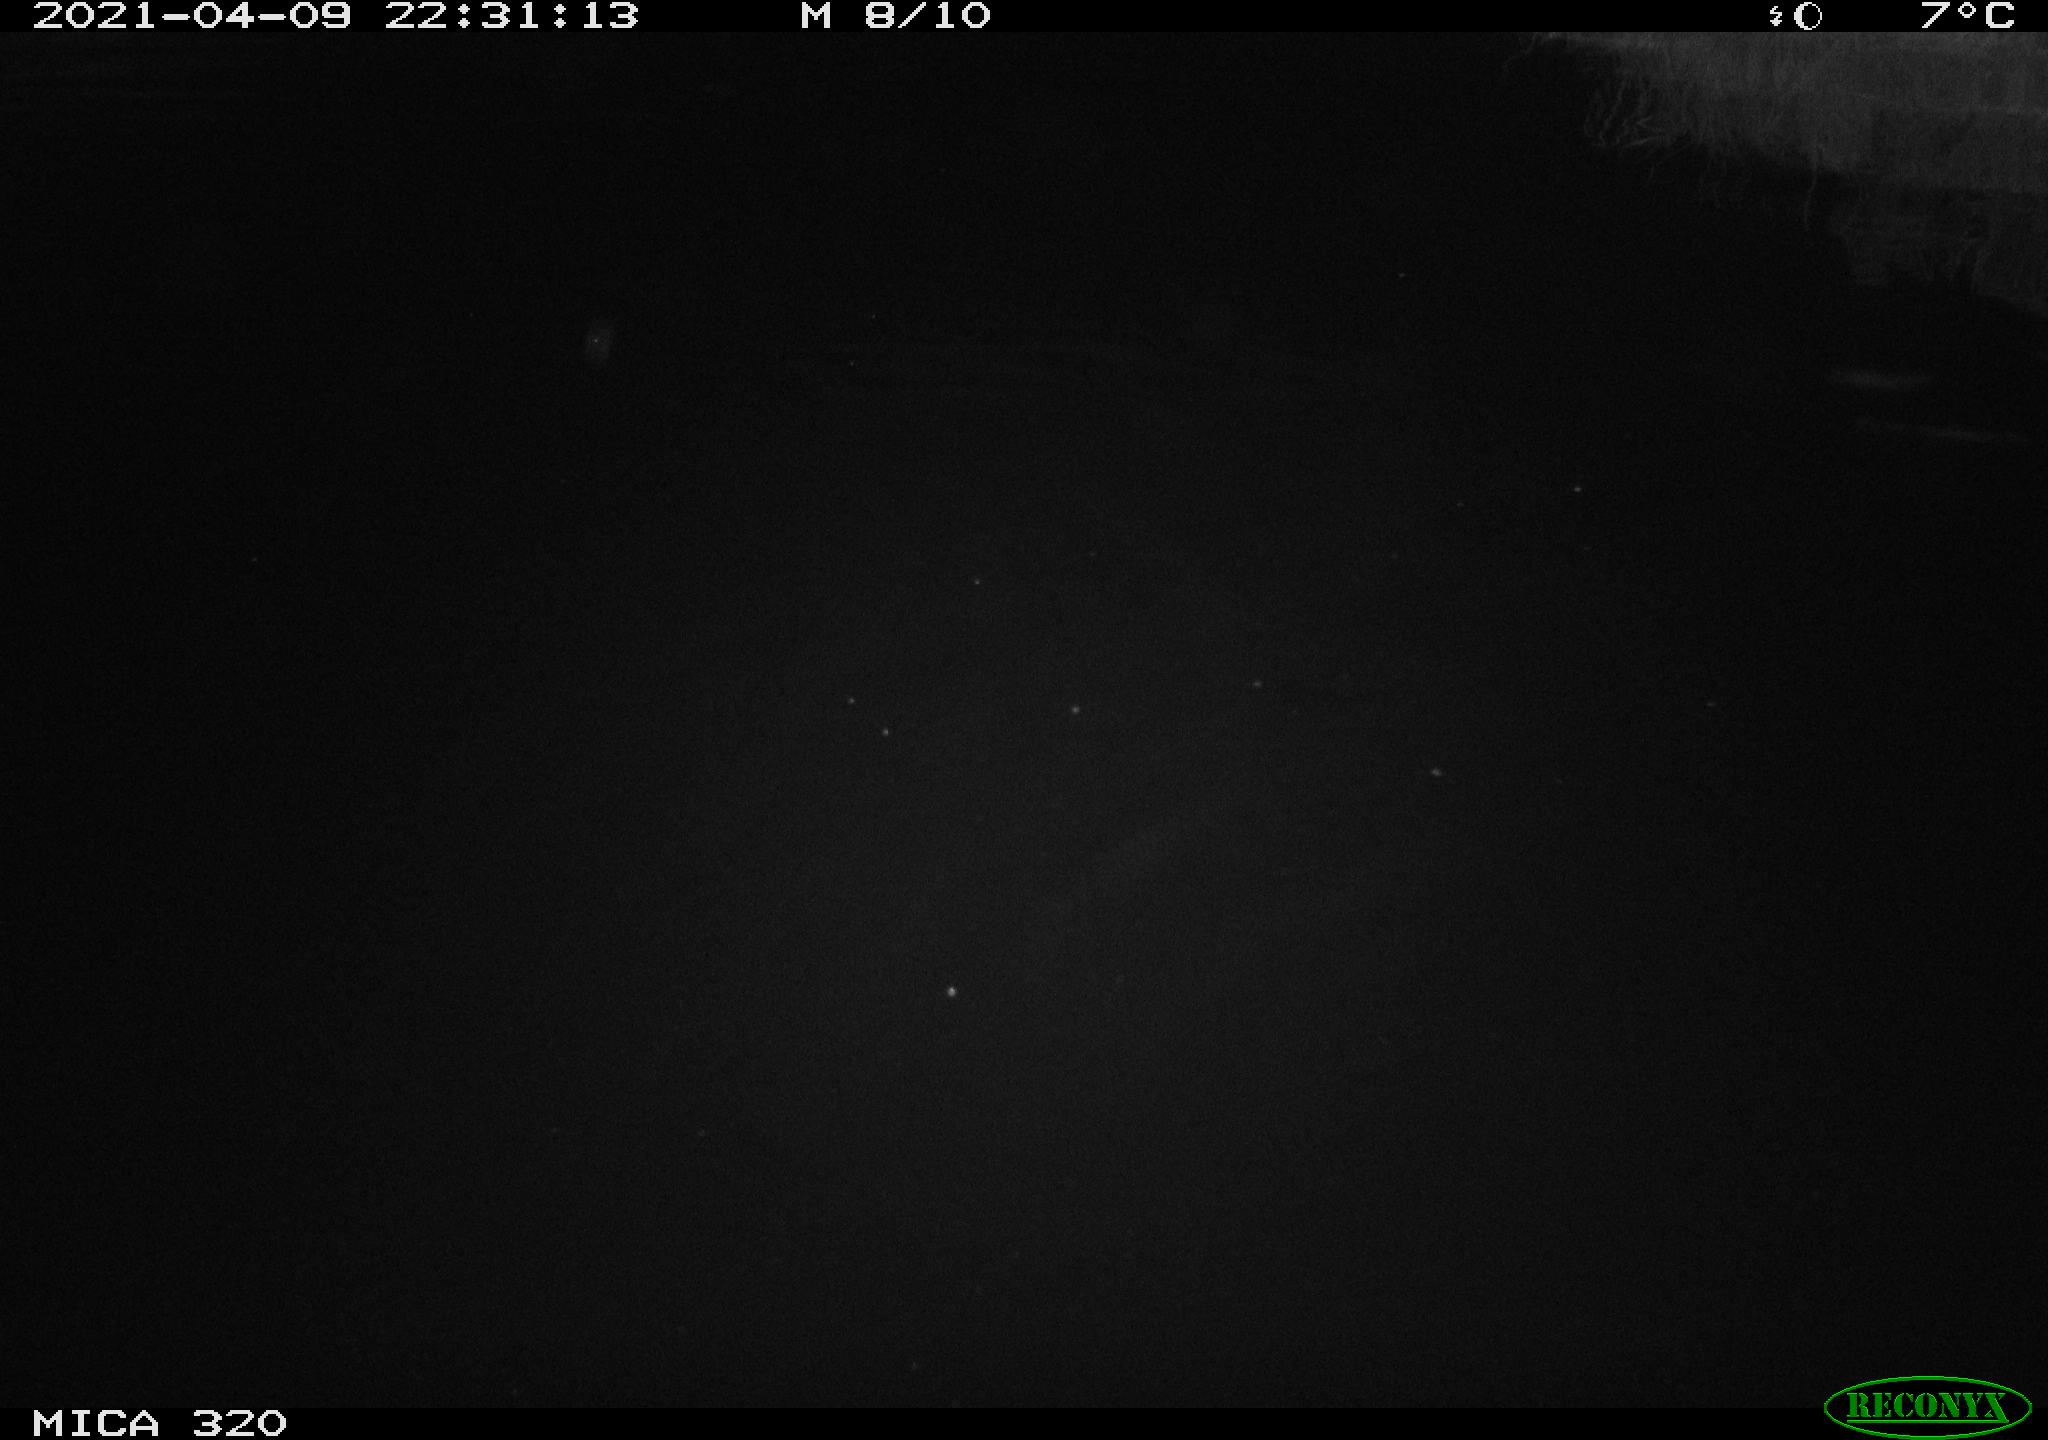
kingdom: Animalia
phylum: Chordata
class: Mammalia
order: Rodentia
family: Muridae
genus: Rattus
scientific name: Rattus norvegicus
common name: Brown rat
